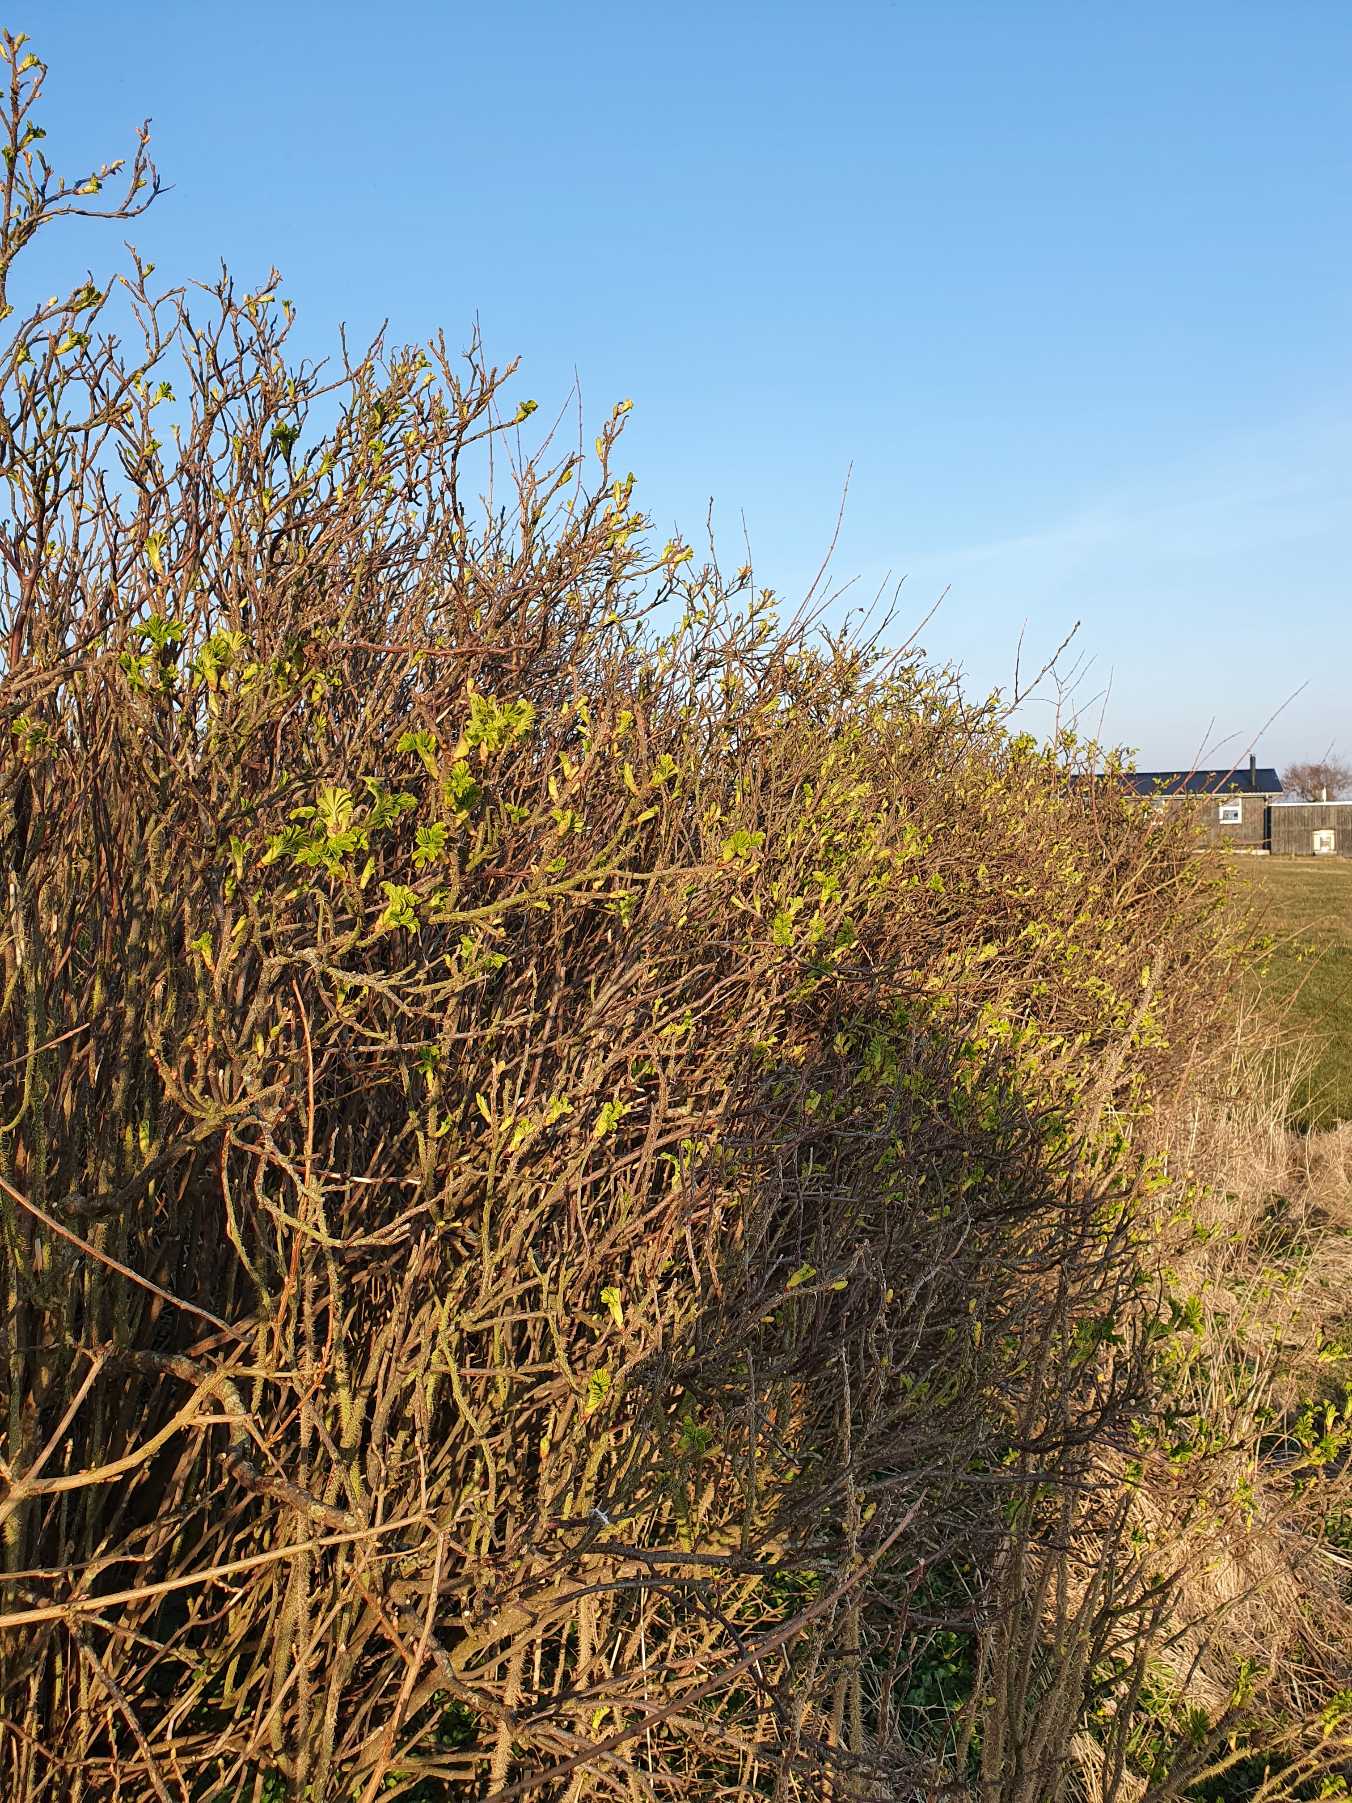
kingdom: Plantae
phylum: Tracheophyta
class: Magnoliopsida
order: Rosales
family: Rosaceae
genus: Rosa
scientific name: Rosa rugosa
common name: Rynket rose
